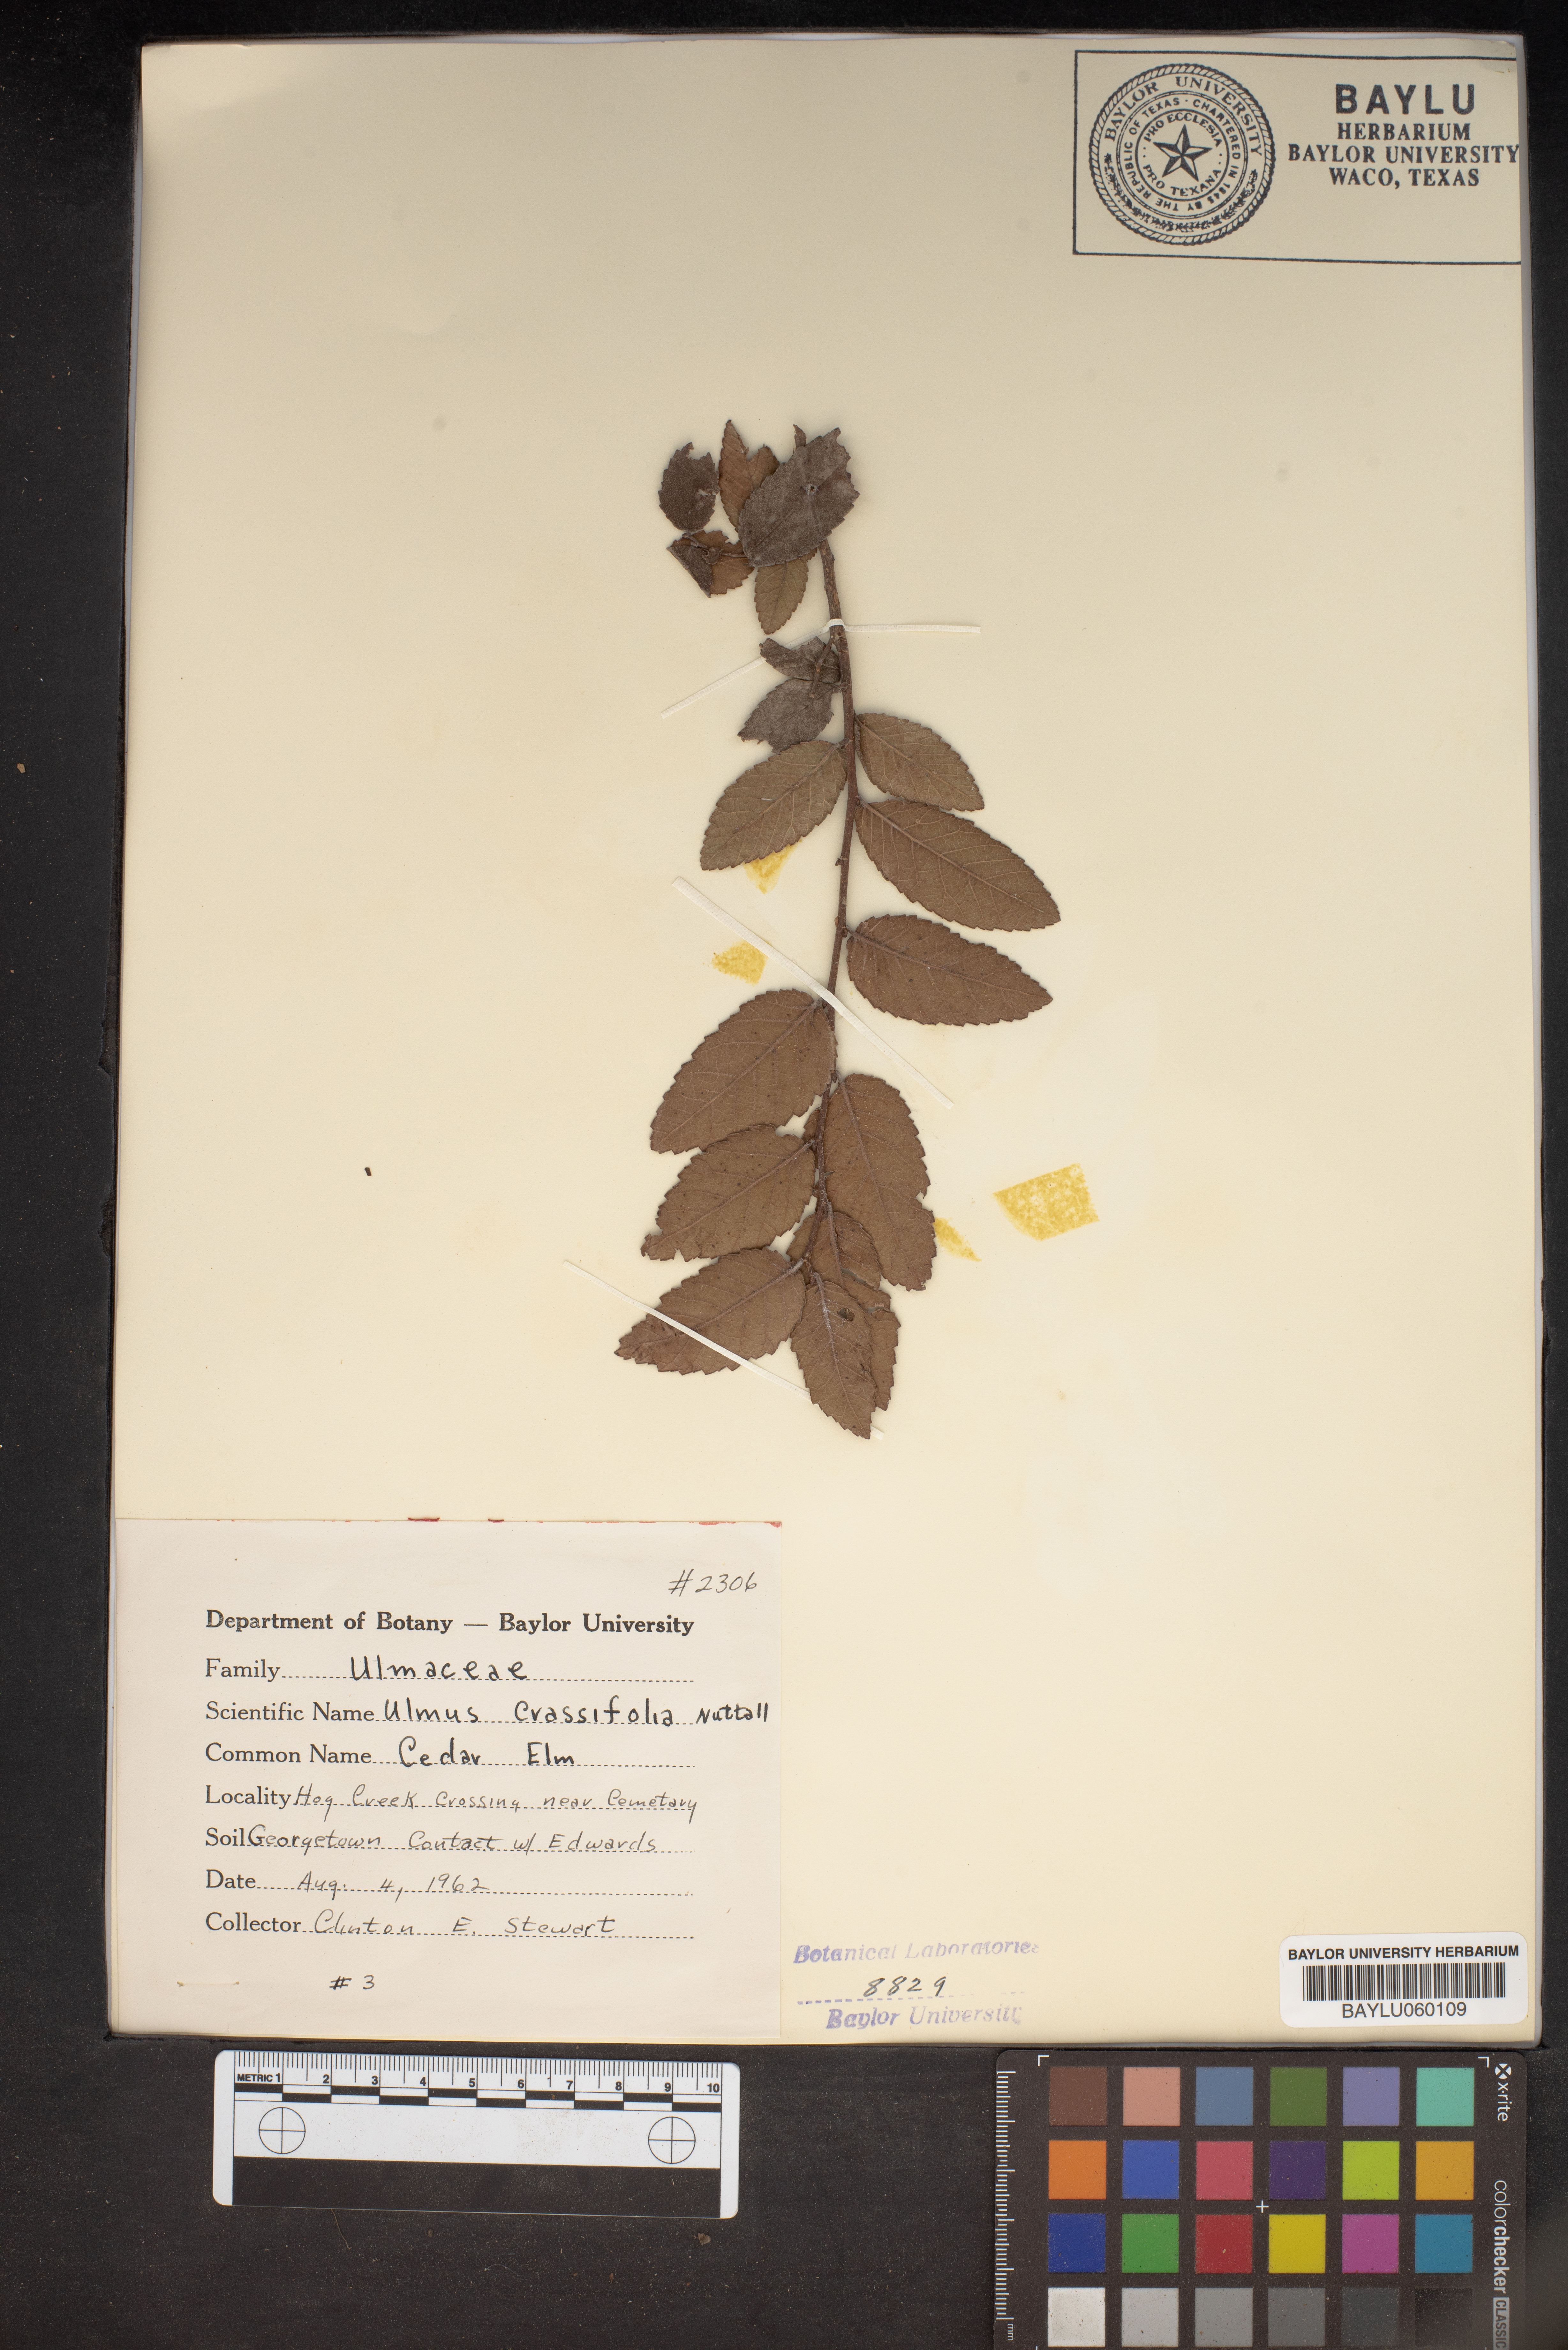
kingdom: Plantae
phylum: Tracheophyta
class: Magnoliopsida
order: Rosales
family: Ulmaceae
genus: Ulmus
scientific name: Ulmus crassifolia
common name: Basket elm
